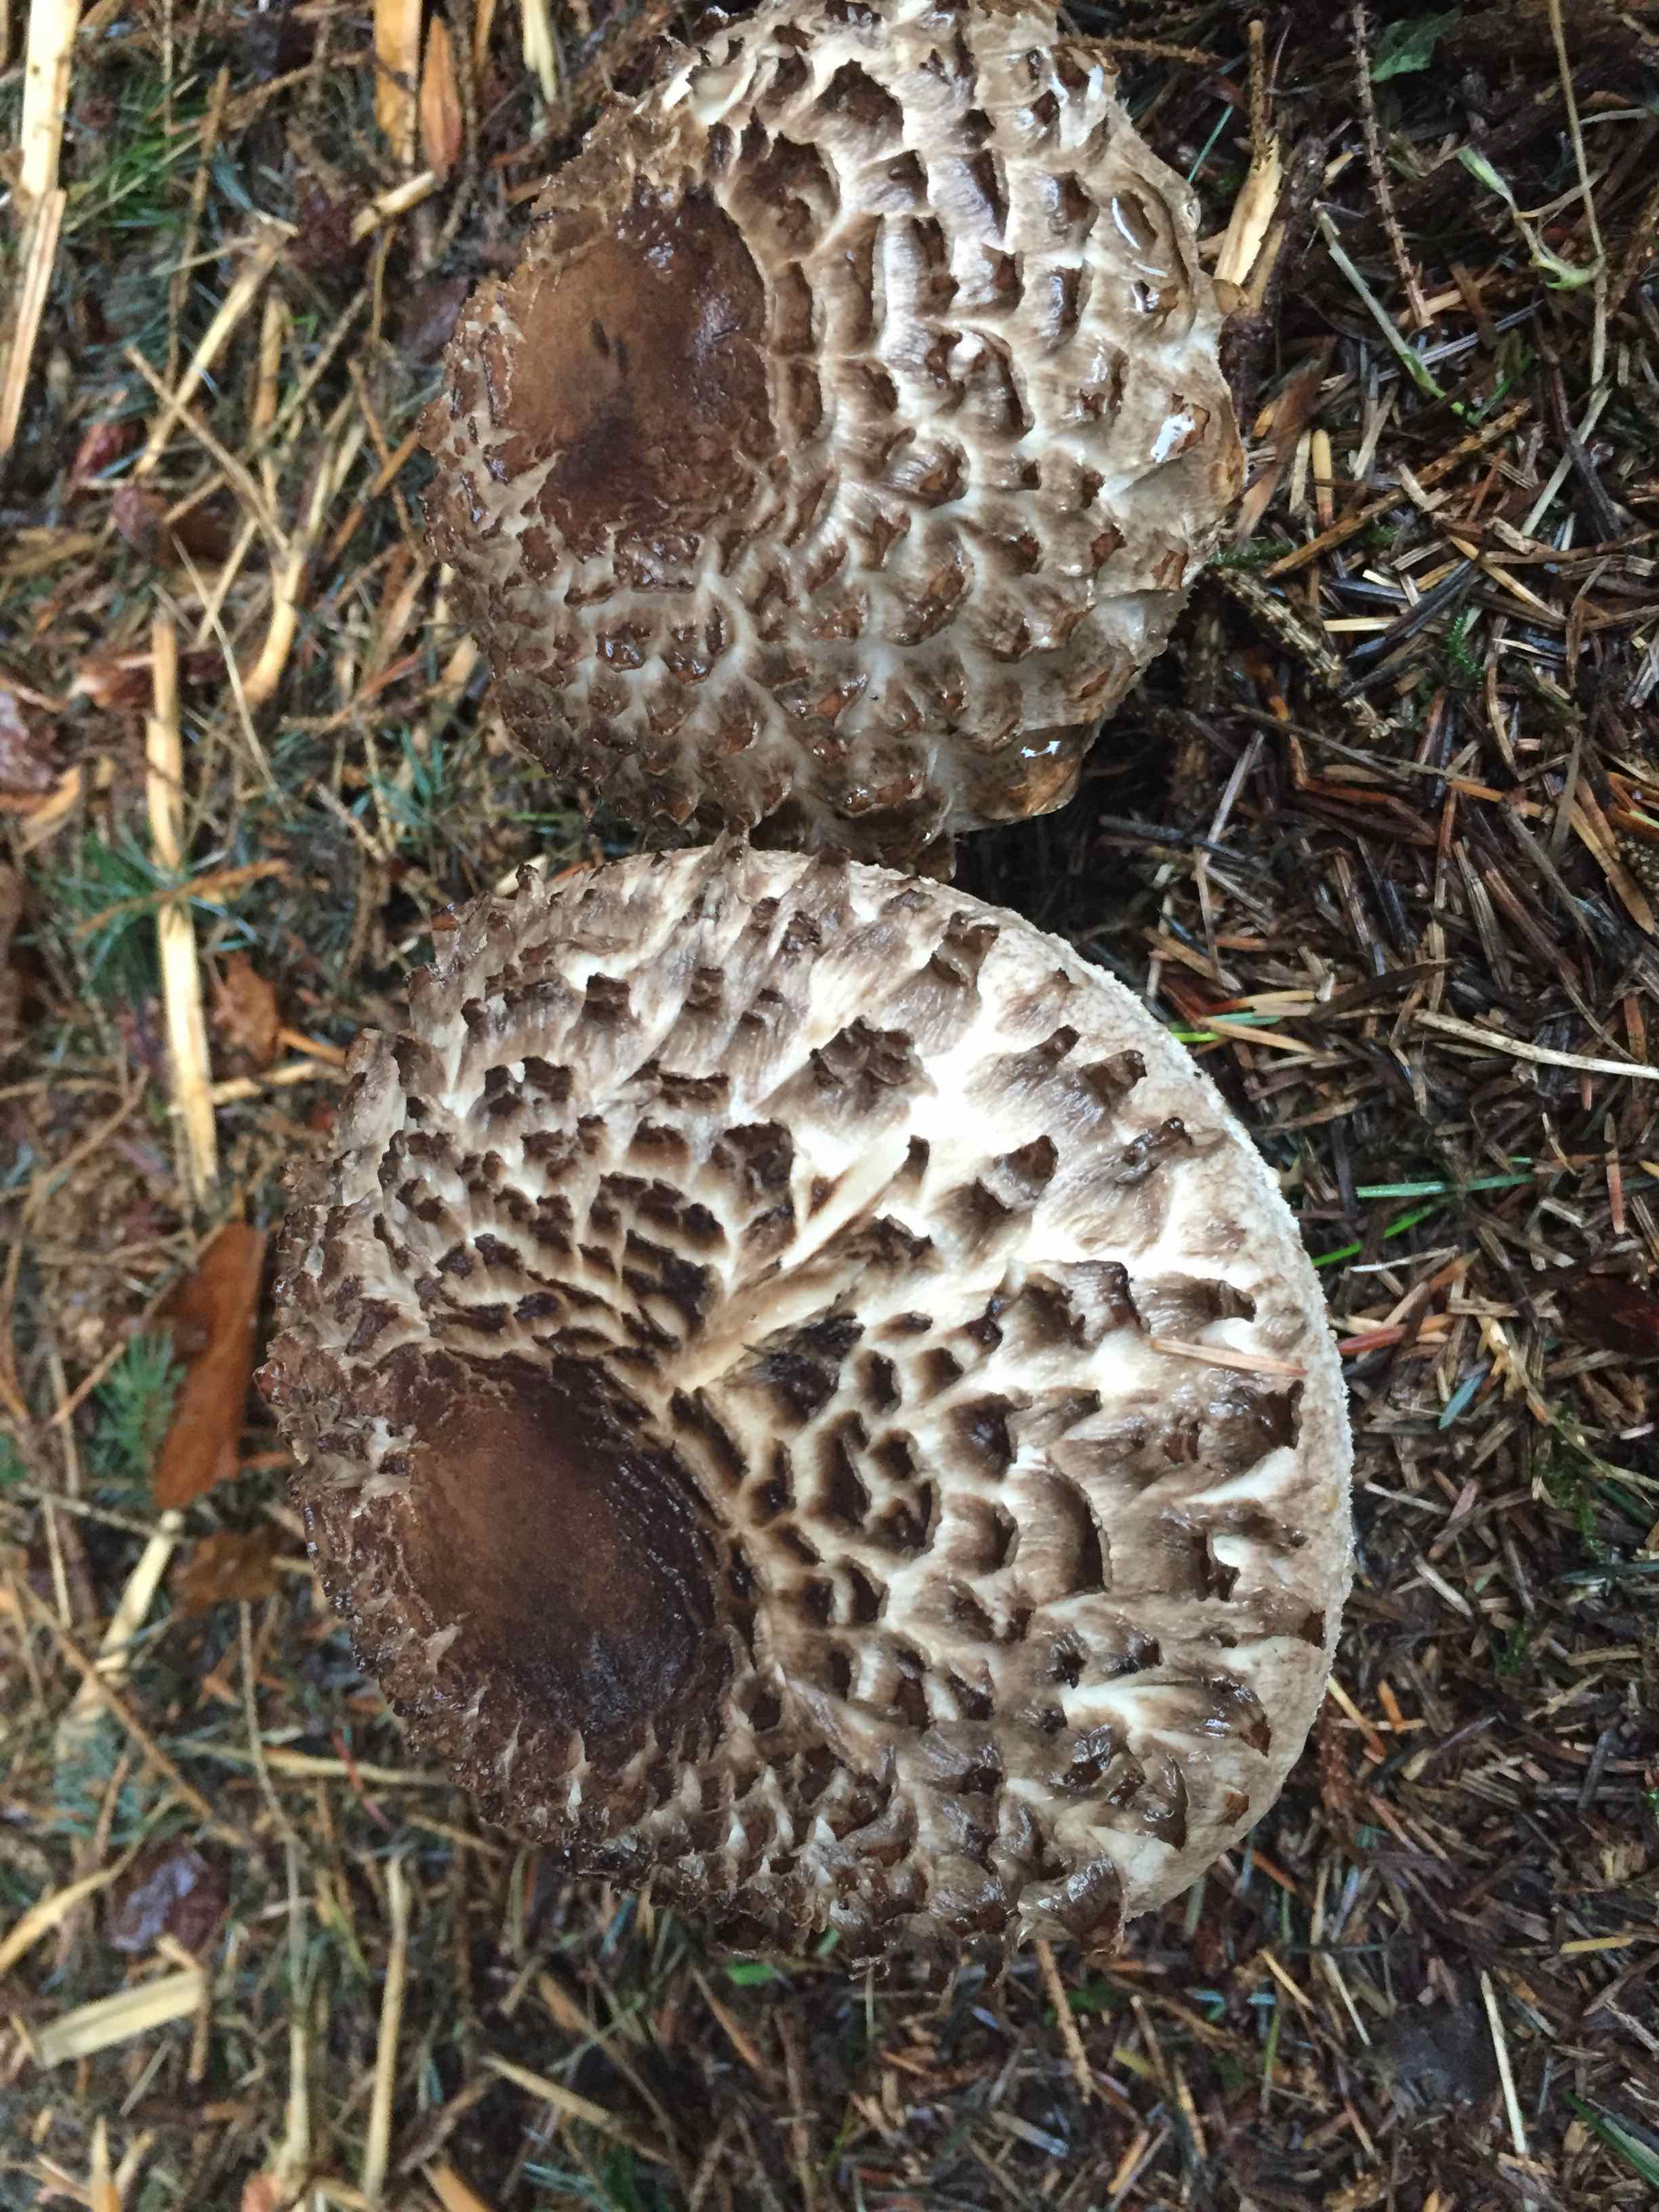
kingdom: Fungi
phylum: Basidiomycota
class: Agaricomycetes
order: Agaricales
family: Agaricaceae
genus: Chlorophyllum
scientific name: Chlorophyllum olivieri
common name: almindelig rabarberhat
